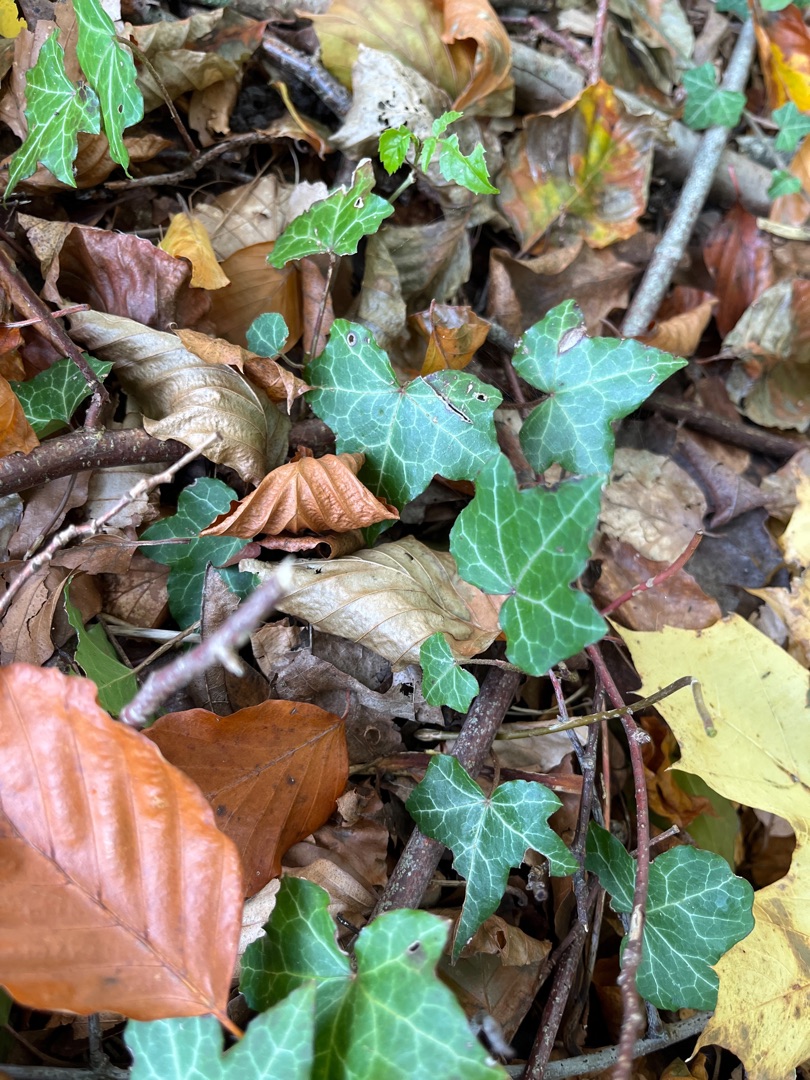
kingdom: Plantae
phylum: Tracheophyta
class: Magnoliopsida
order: Apiales
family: Araliaceae
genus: Hedera
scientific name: Hedera helix
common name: Vedbend
